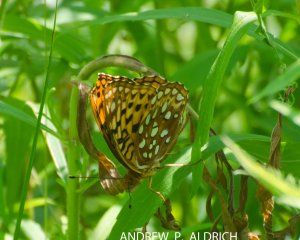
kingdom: Animalia
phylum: Arthropoda
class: Insecta
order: Lepidoptera
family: Nymphalidae
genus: Speyeria
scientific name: Speyeria cybele
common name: Great Spangled Fritillary
